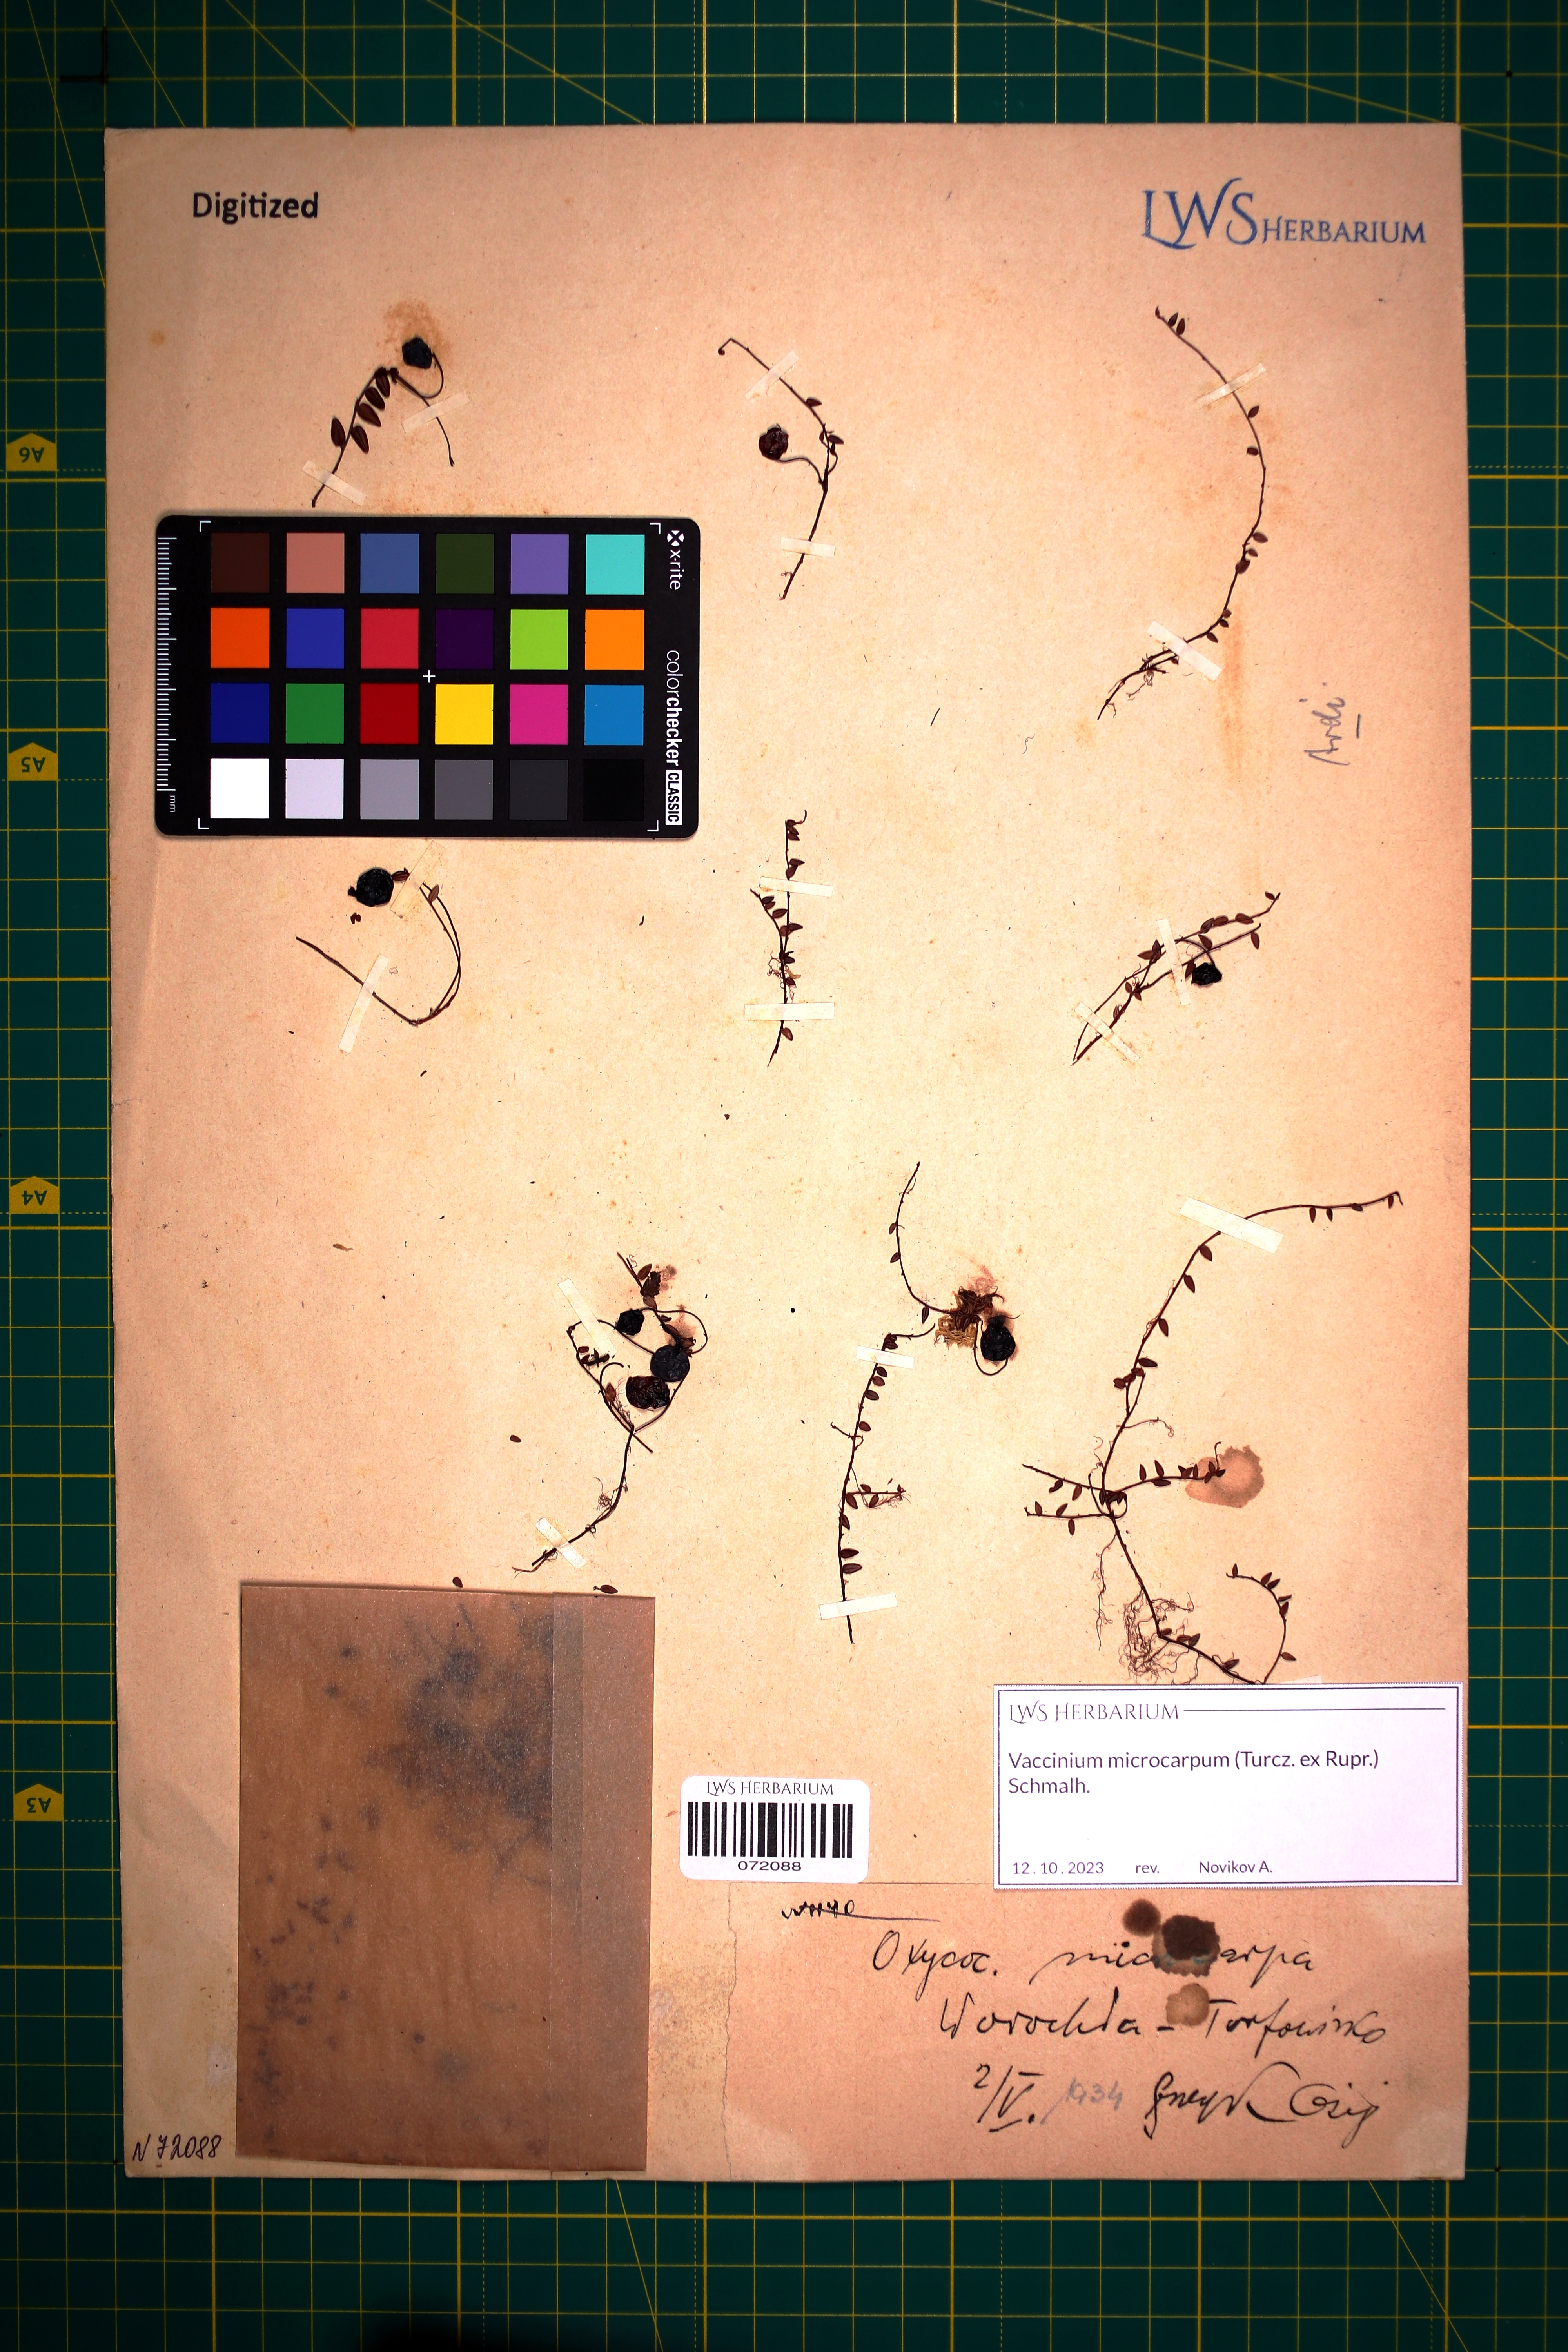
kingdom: Plantae
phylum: Tracheophyta
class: Magnoliopsida
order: Ericales
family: Ericaceae
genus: Vaccinium
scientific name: Vaccinium microcarpum
